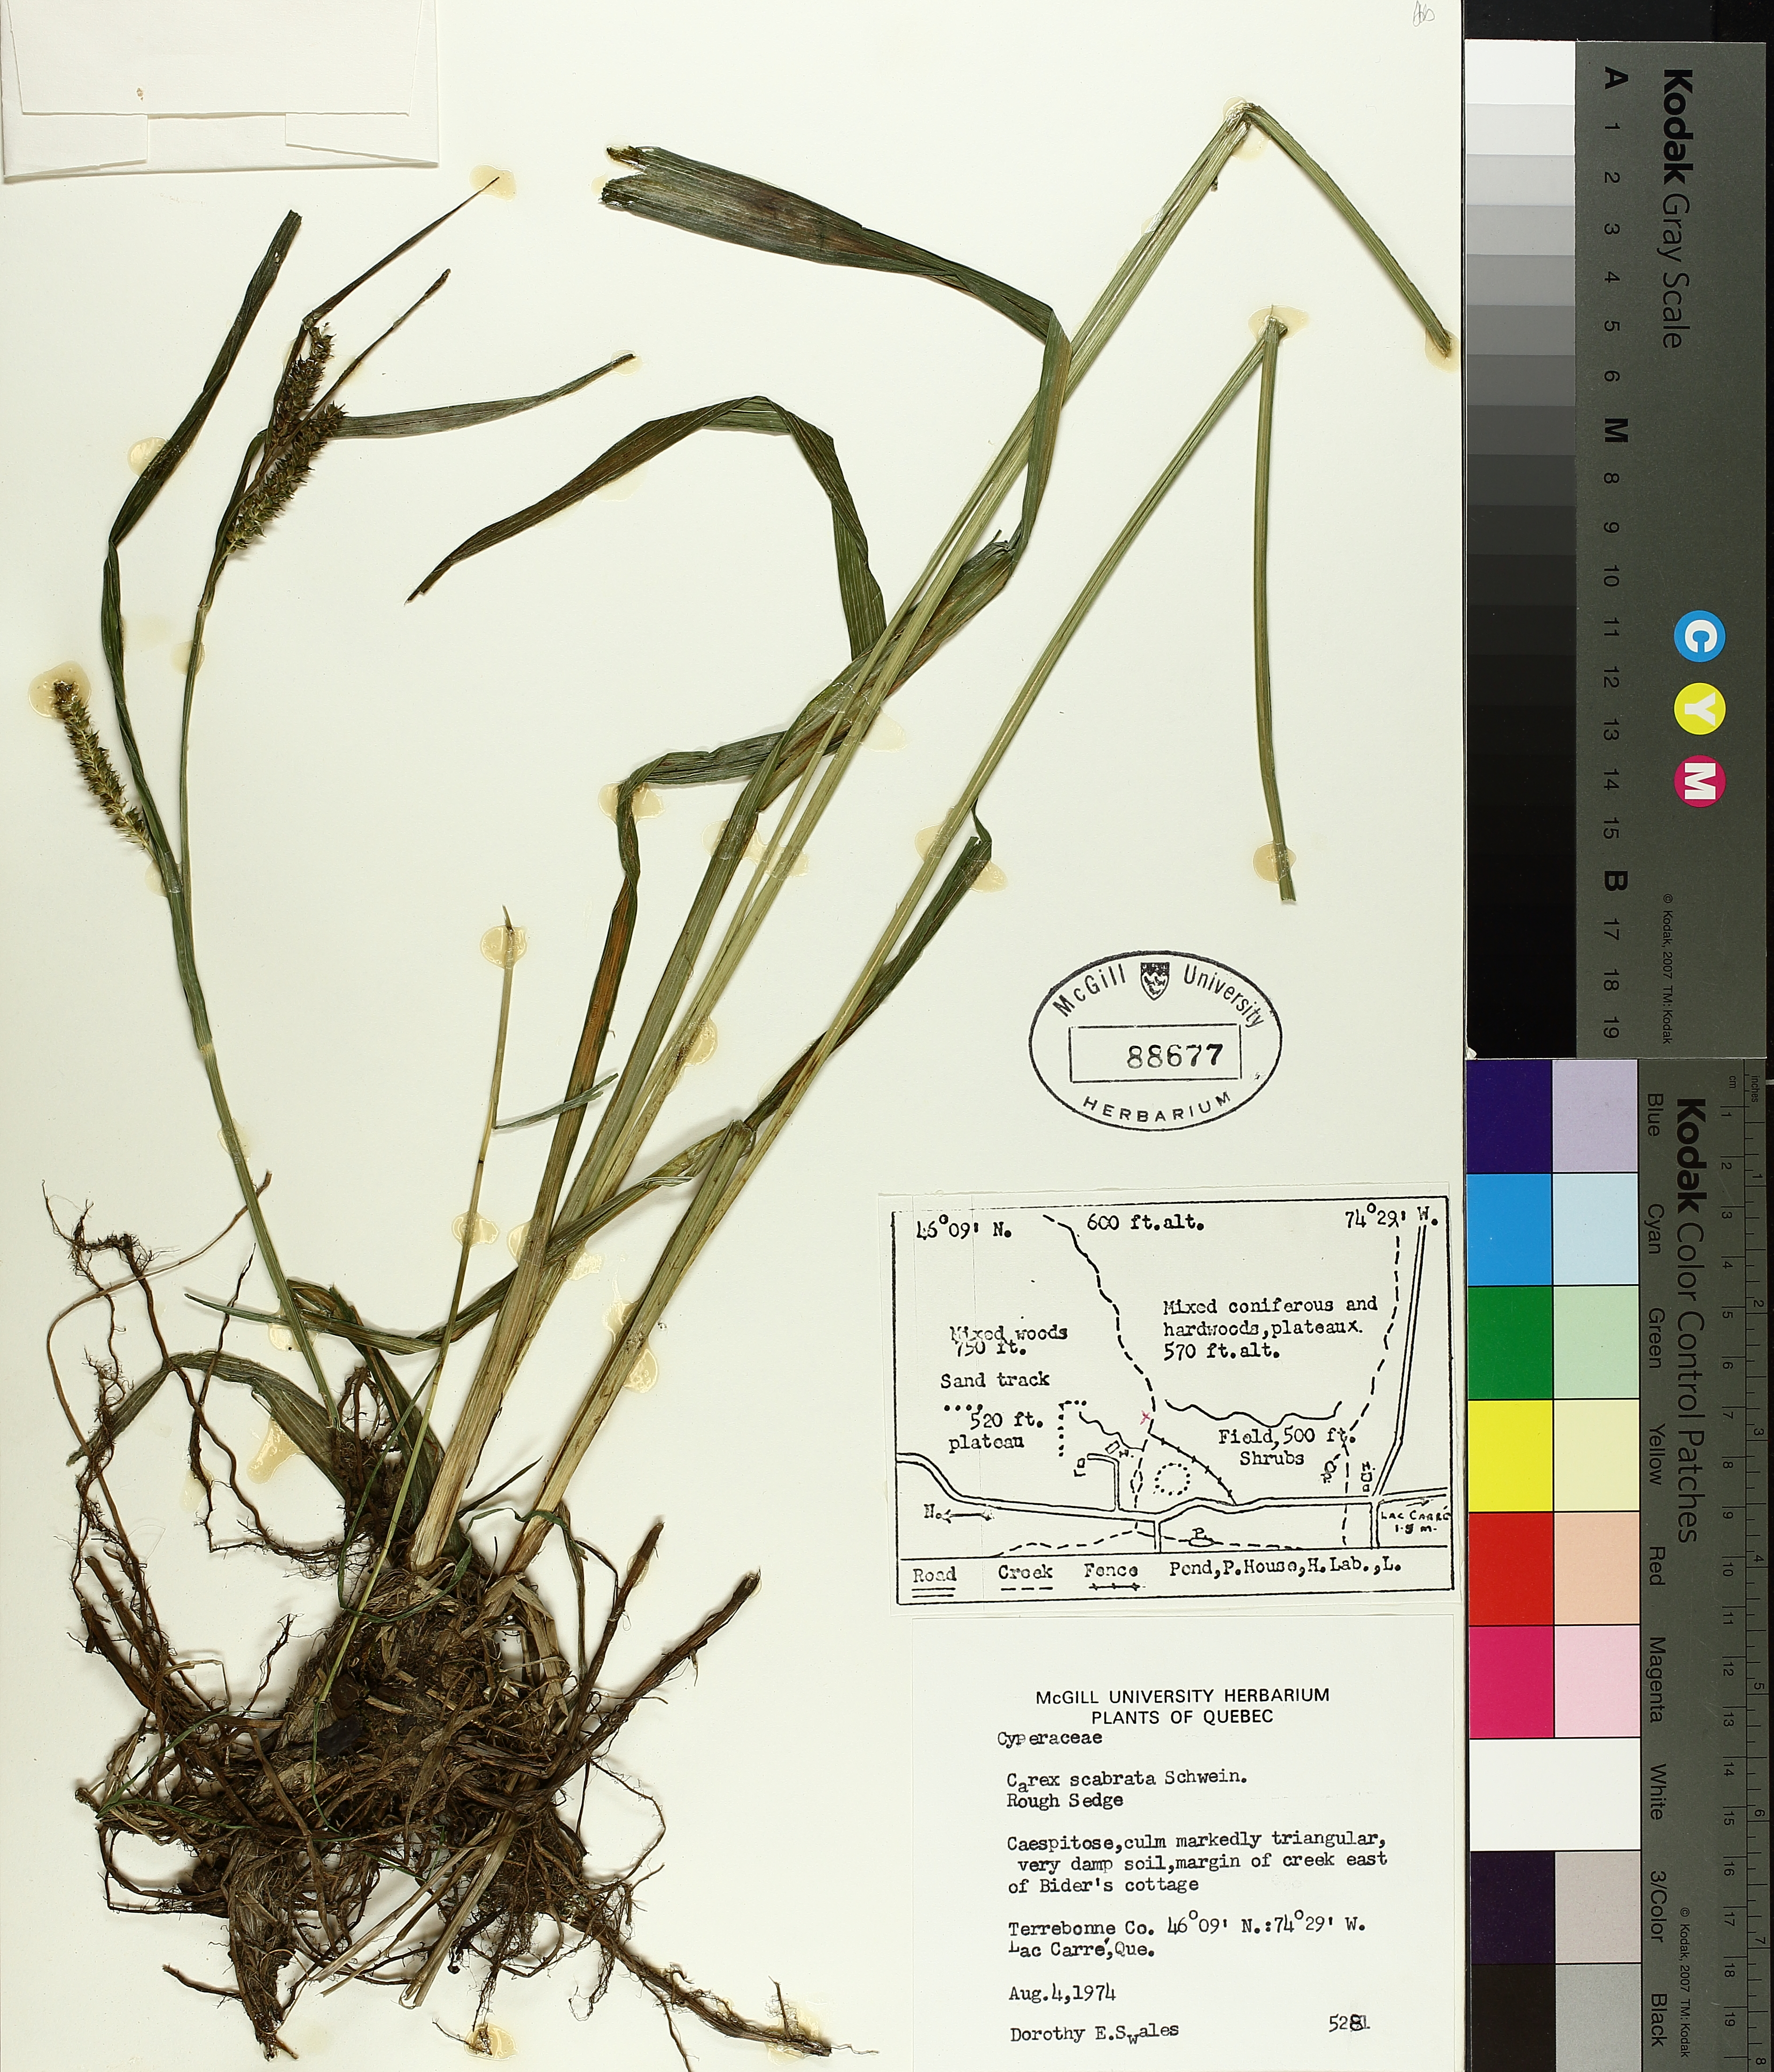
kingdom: Plantae
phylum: Tracheophyta
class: Liliopsida
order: Poales
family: Cyperaceae
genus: Carex
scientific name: Carex saxatilis
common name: Russet sedge
